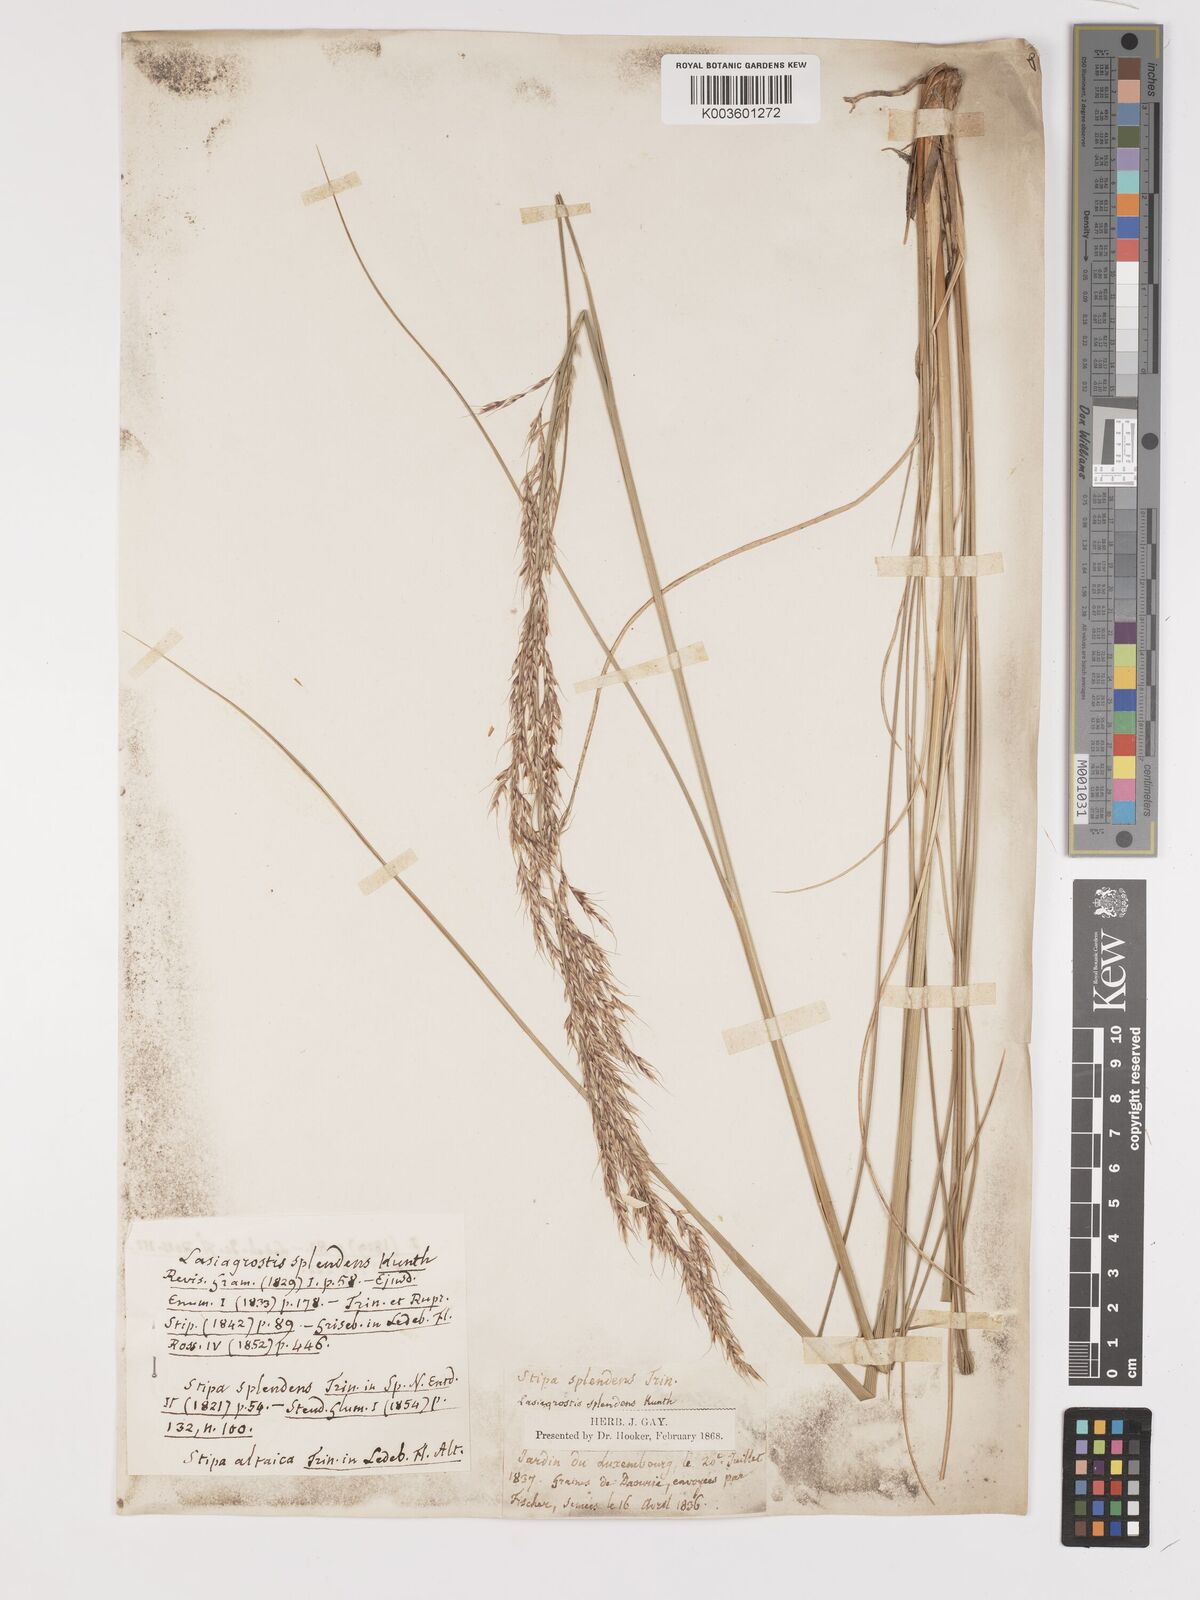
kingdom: Plantae
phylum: Tracheophyta
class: Liliopsida
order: Poales
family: Poaceae
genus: Neotrinia
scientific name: Neotrinia splendens
